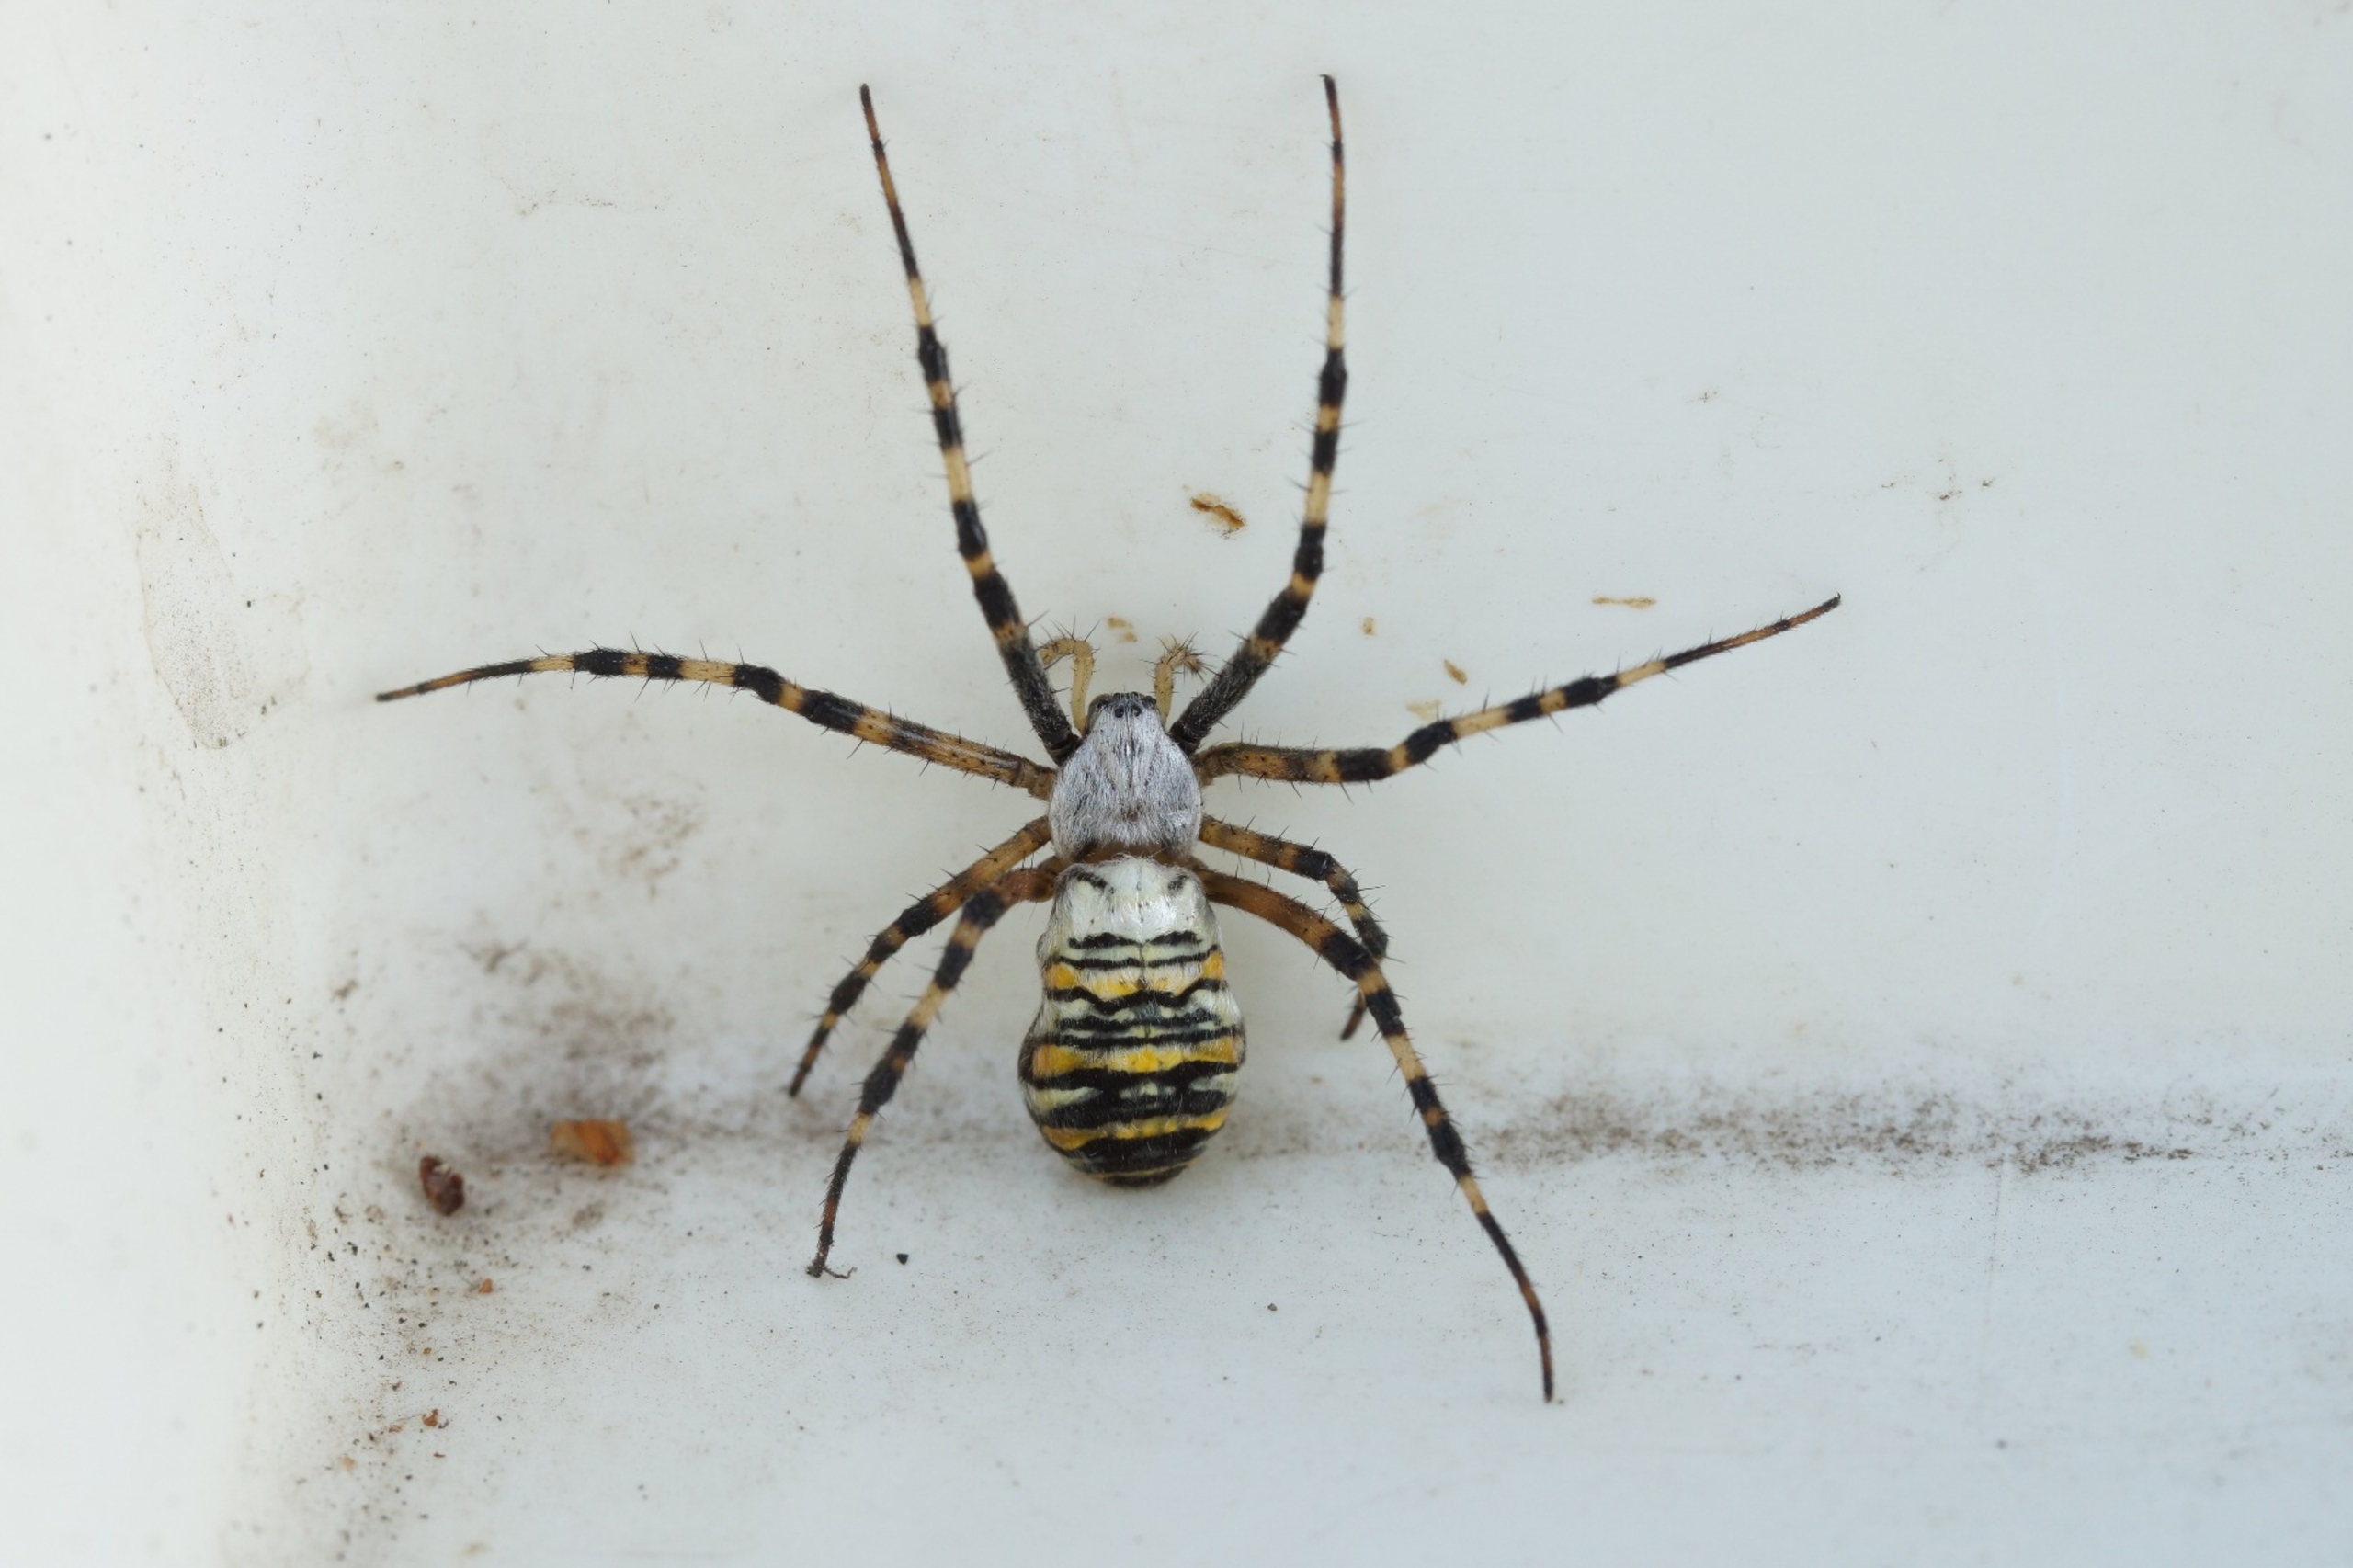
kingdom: Animalia
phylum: Arthropoda
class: Arachnida
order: Araneae
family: Araneidae
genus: Argiope
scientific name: Argiope bruennichi
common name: Hvepseedderkop
